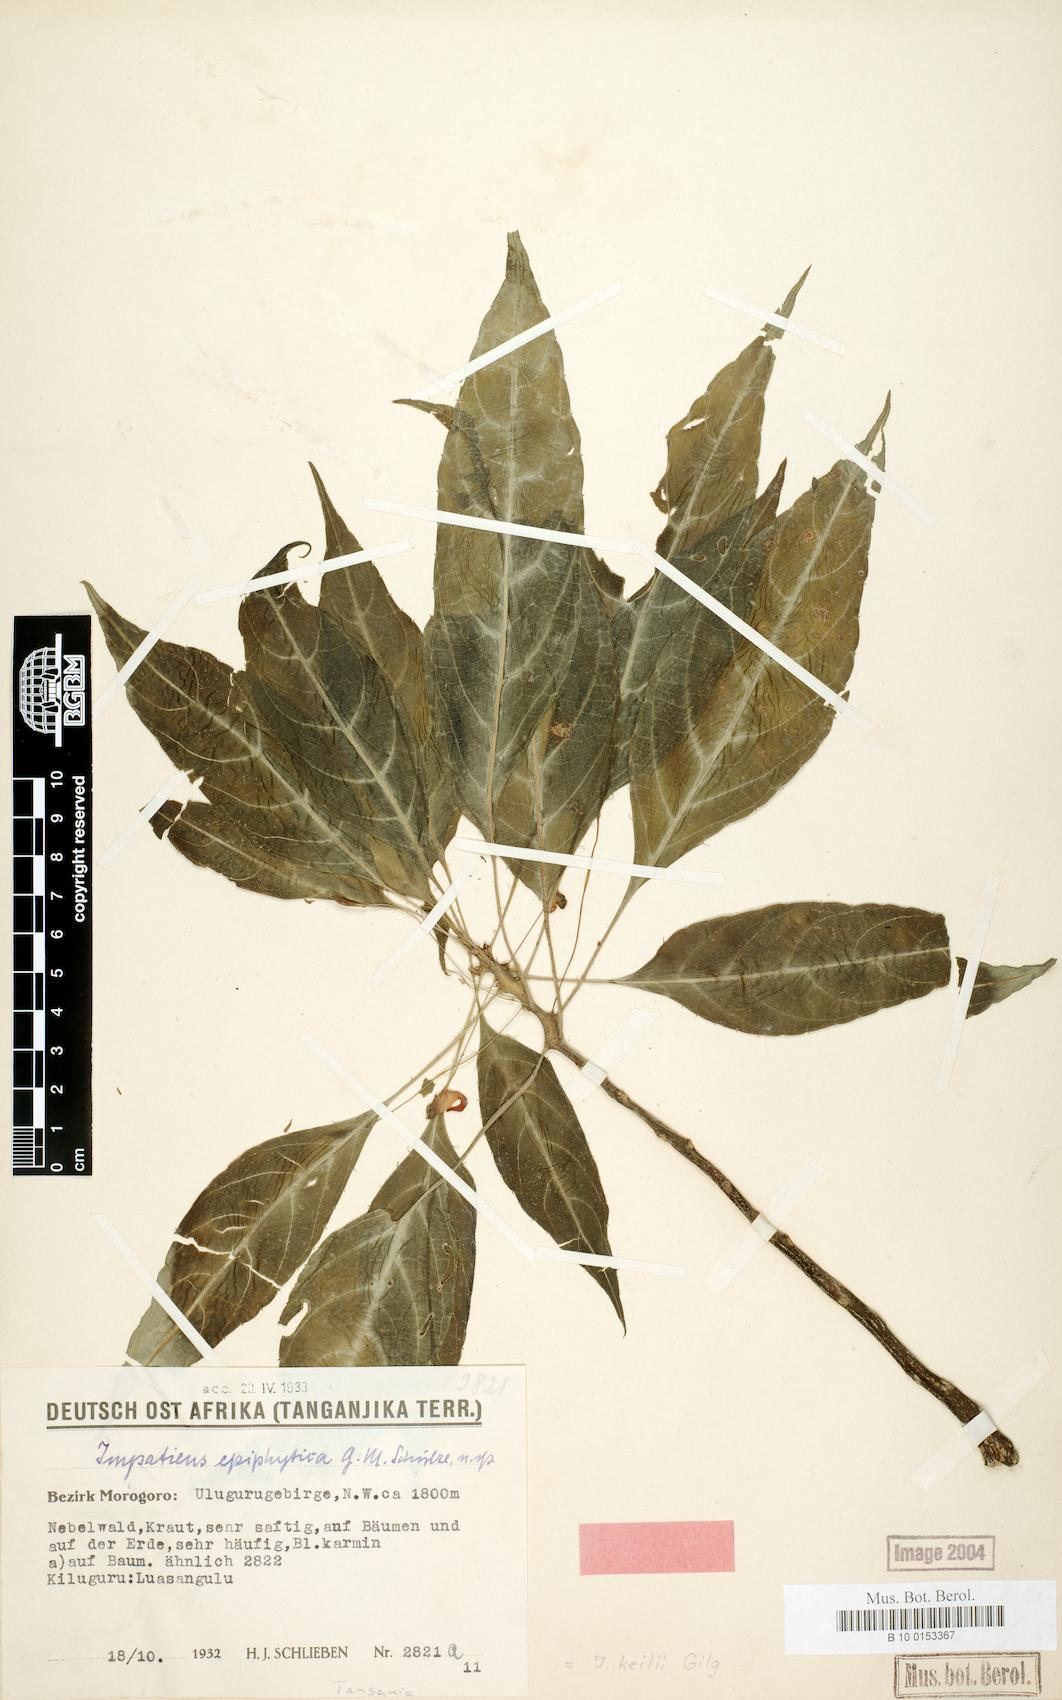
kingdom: Plantae
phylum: Tracheophyta
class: Magnoliopsida
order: Ericales
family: Balsaminaceae
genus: Impatiens
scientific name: Impatiens keilii
